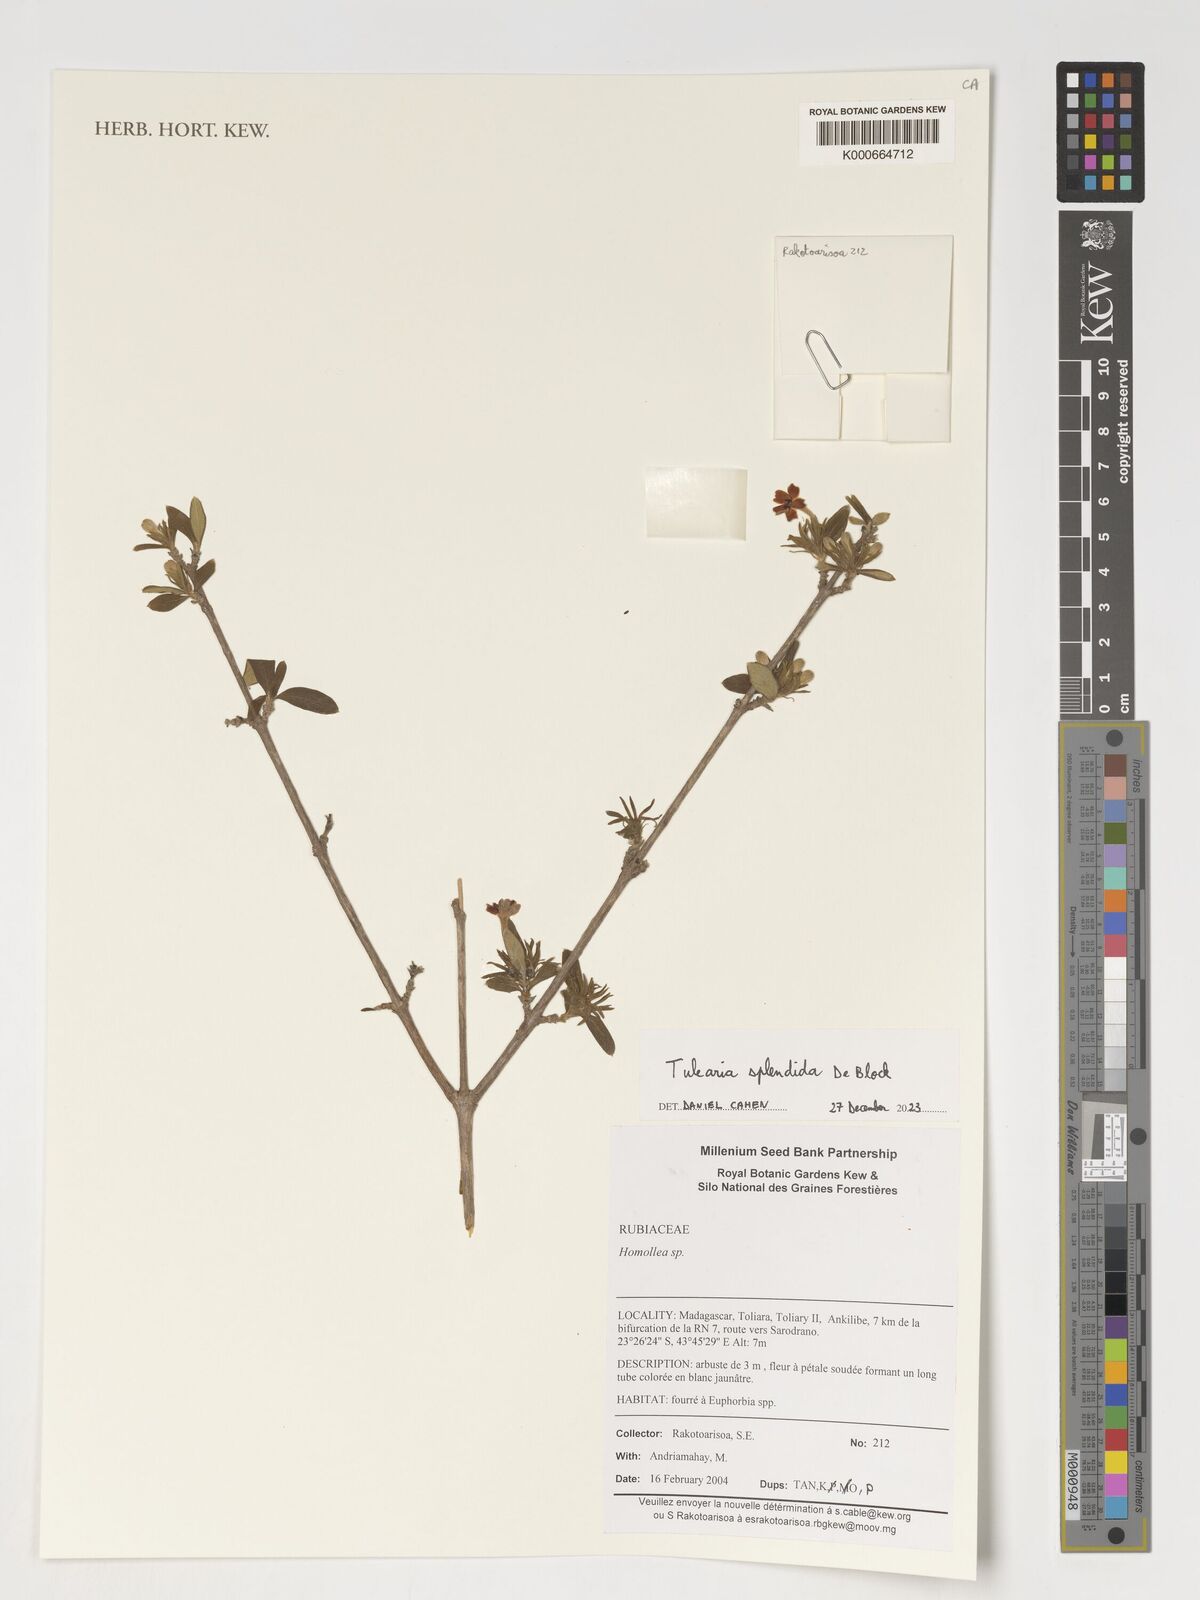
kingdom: Plantae
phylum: Tracheophyta
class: Magnoliopsida
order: Gentianales
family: Rubiaceae
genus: Homollea
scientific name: Homollea
